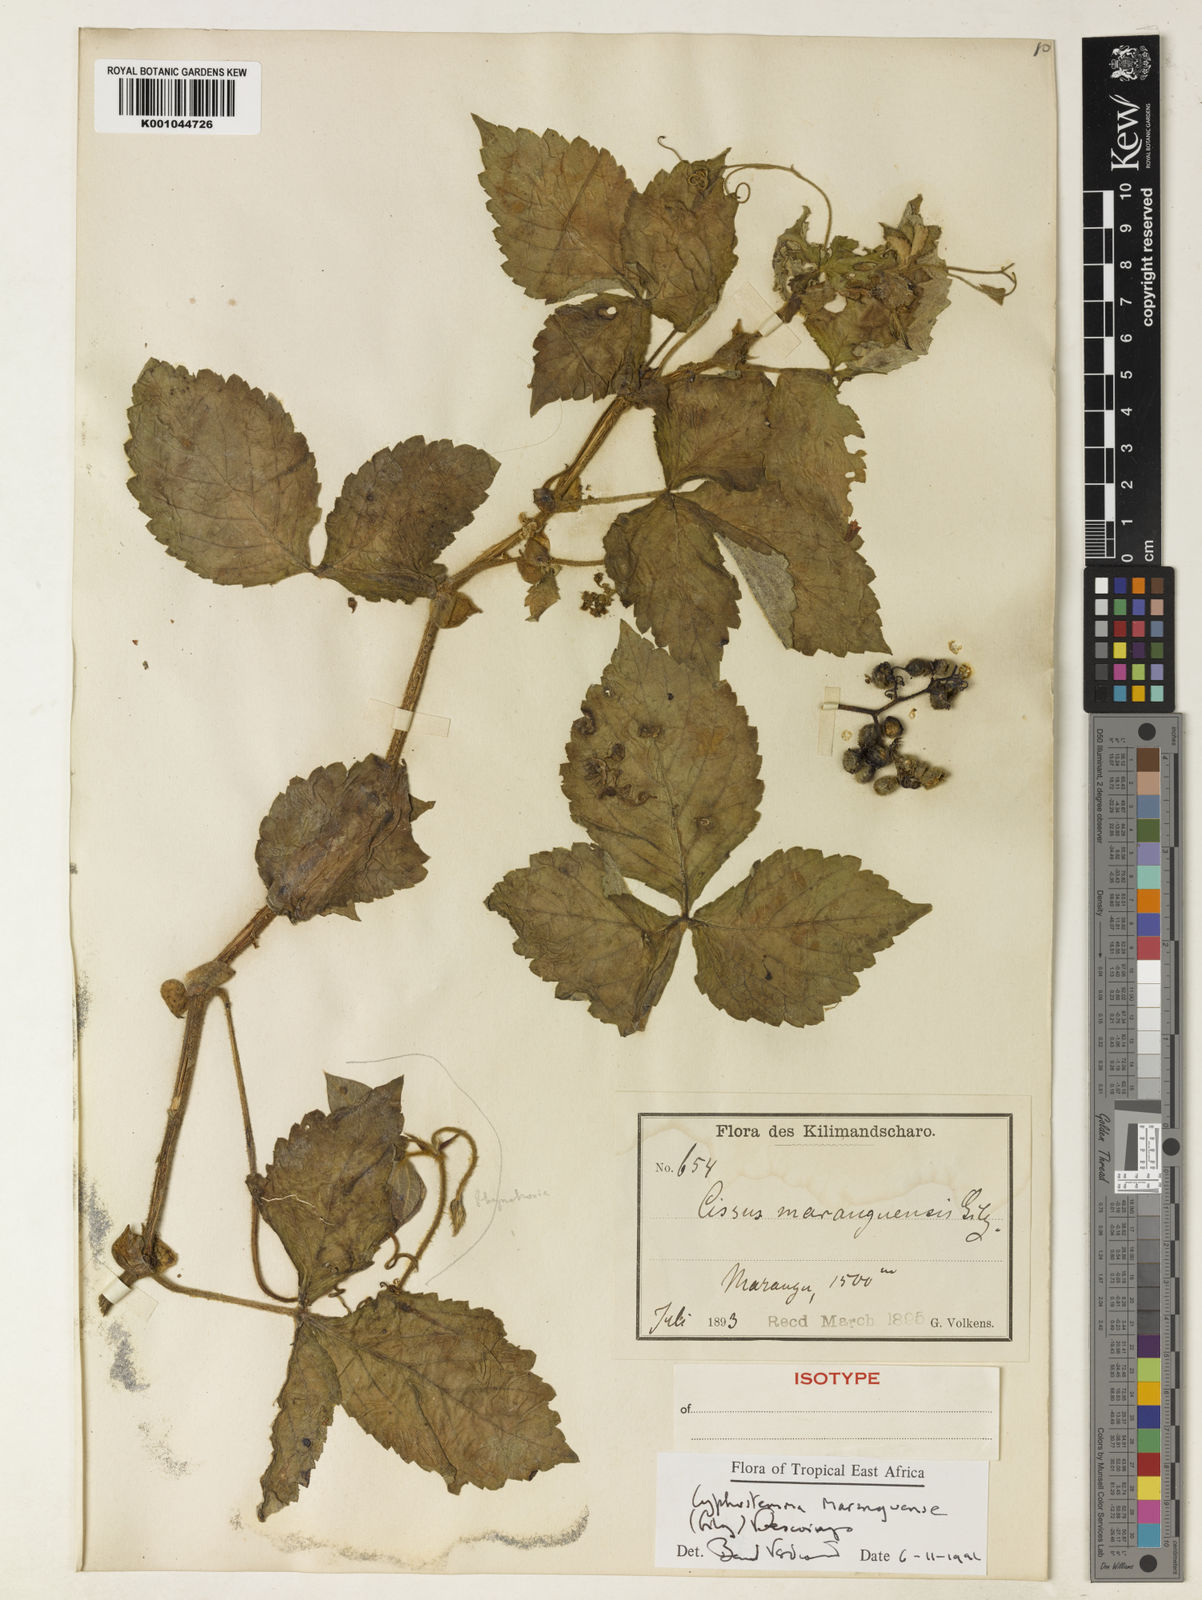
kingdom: Plantae
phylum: Tracheophyta
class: Magnoliopsida
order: Vitales
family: Vitaceae
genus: Cyphostemma
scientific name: Cyphostemma maranguensis
